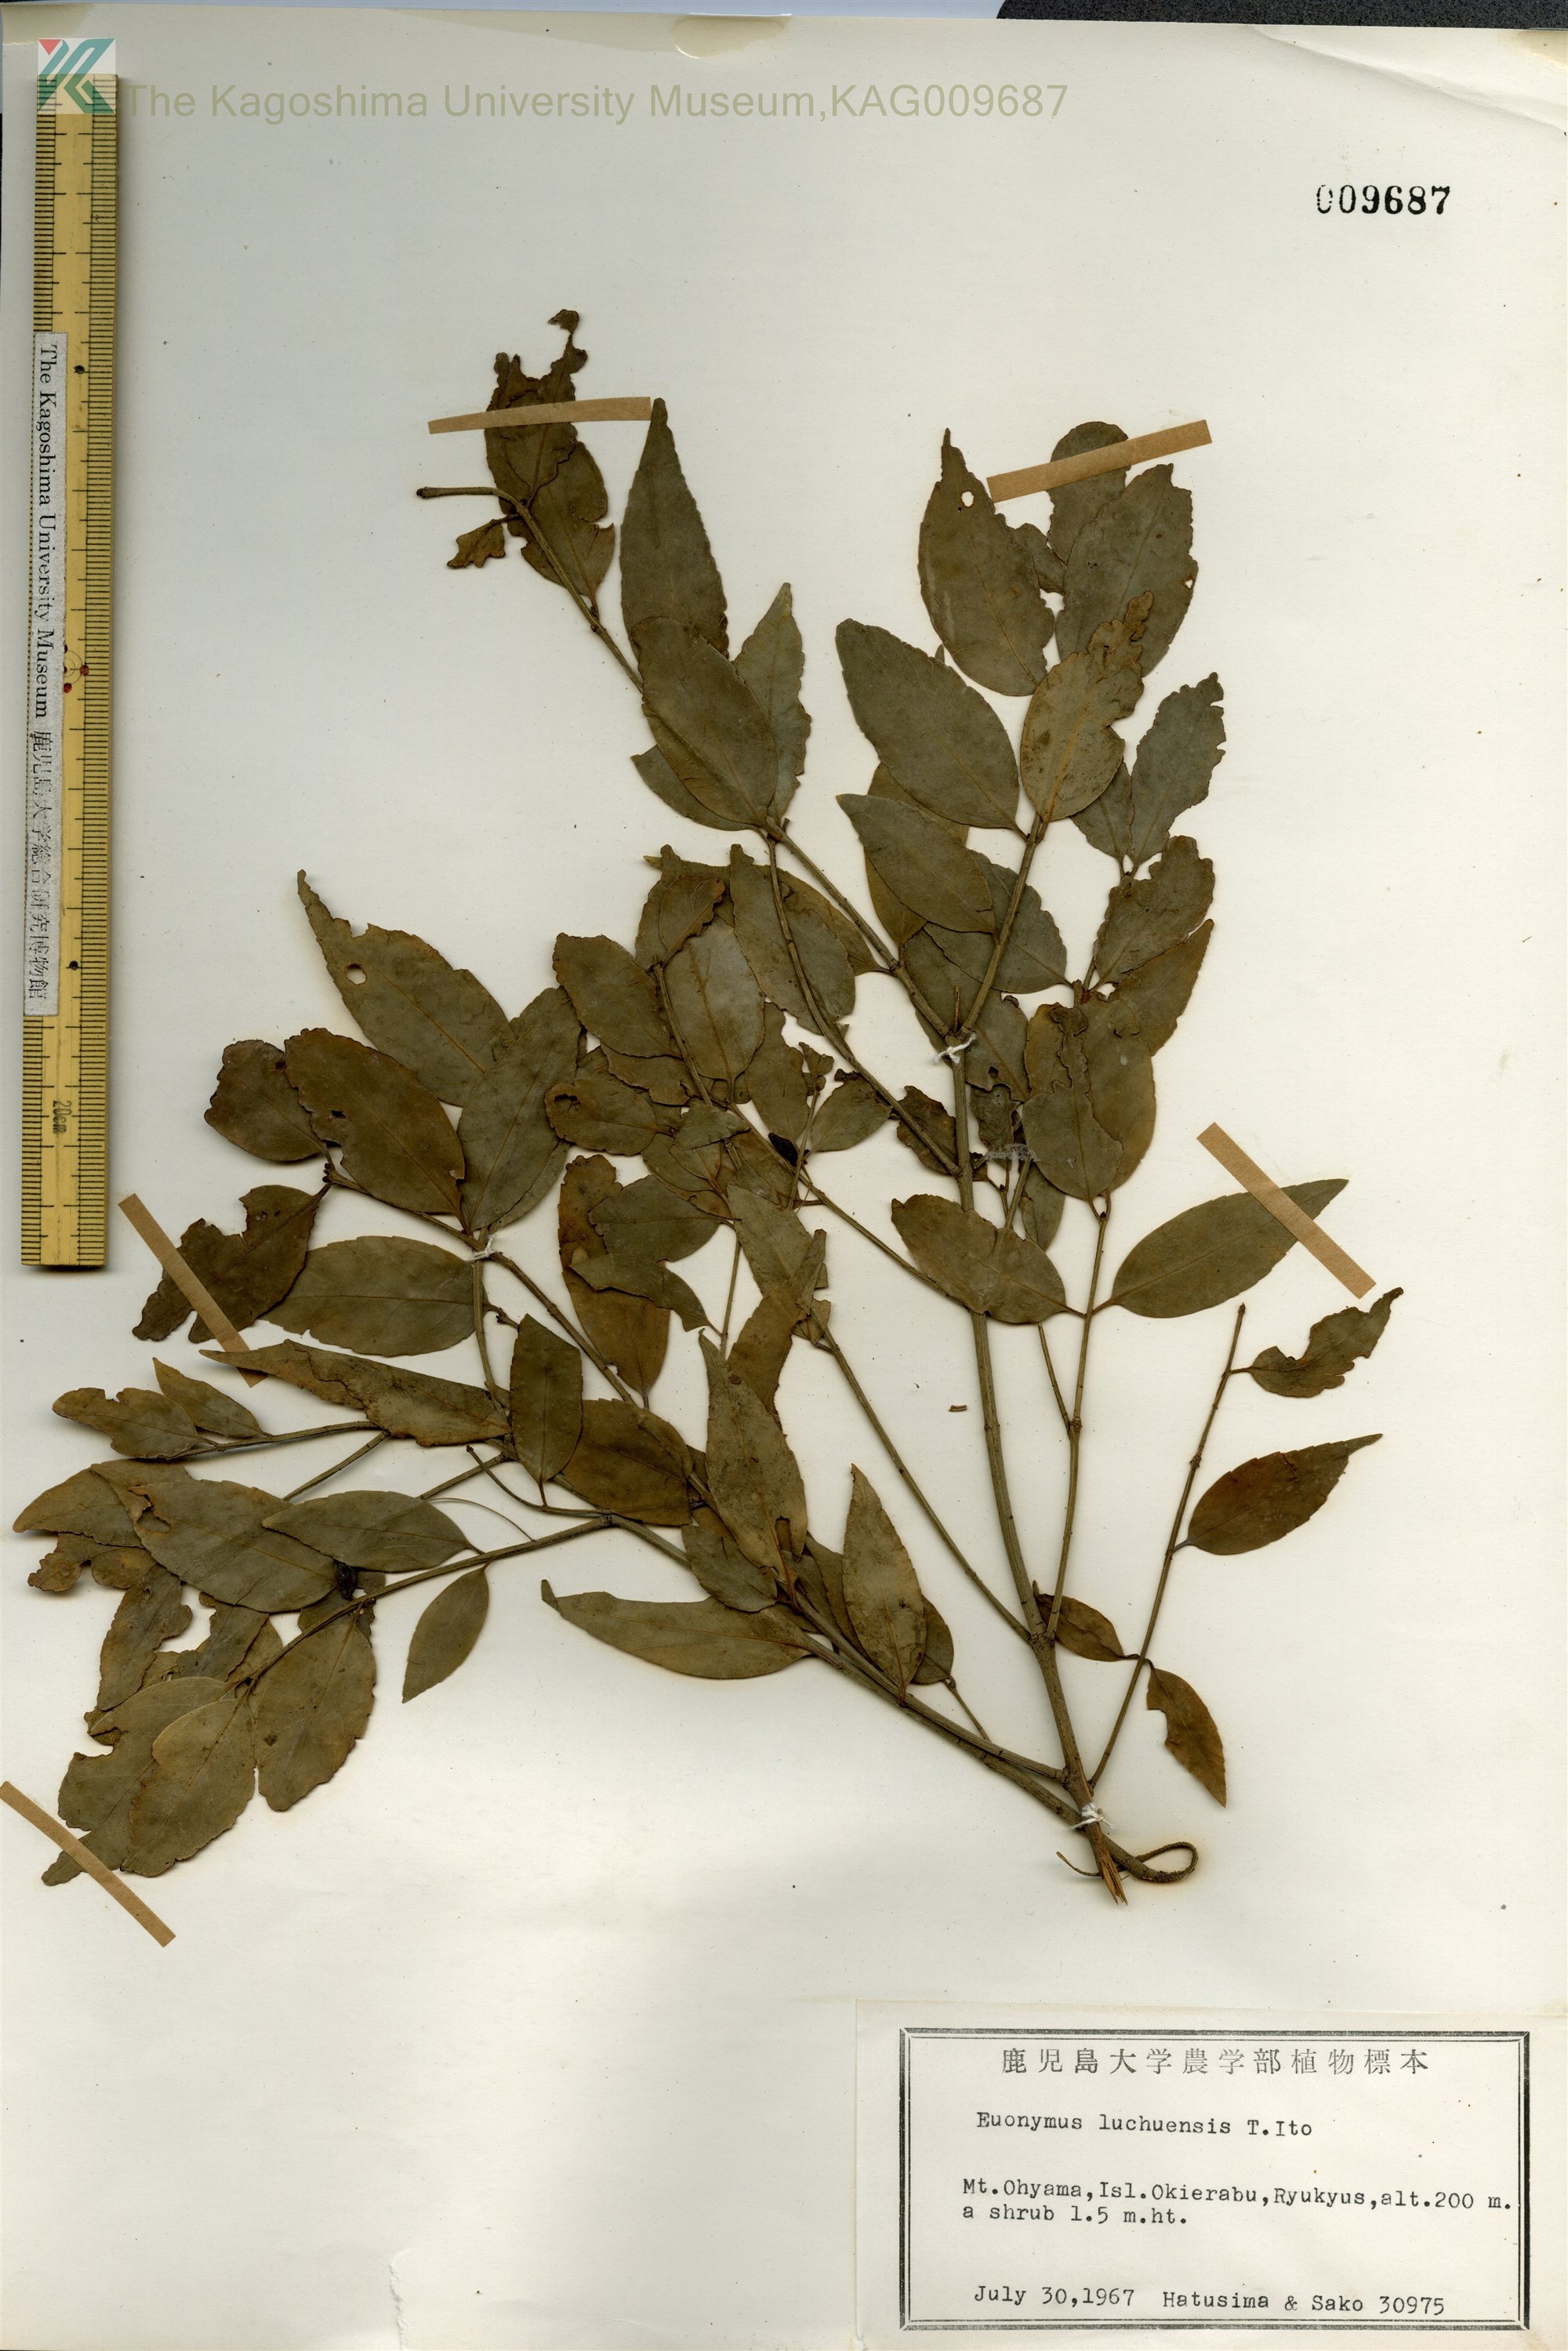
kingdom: Plantae
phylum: Tracheophyta
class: Magnoliopsida
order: Celastrales
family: Celastraceae
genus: Euonymus
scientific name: Euonymus lutchuensis
